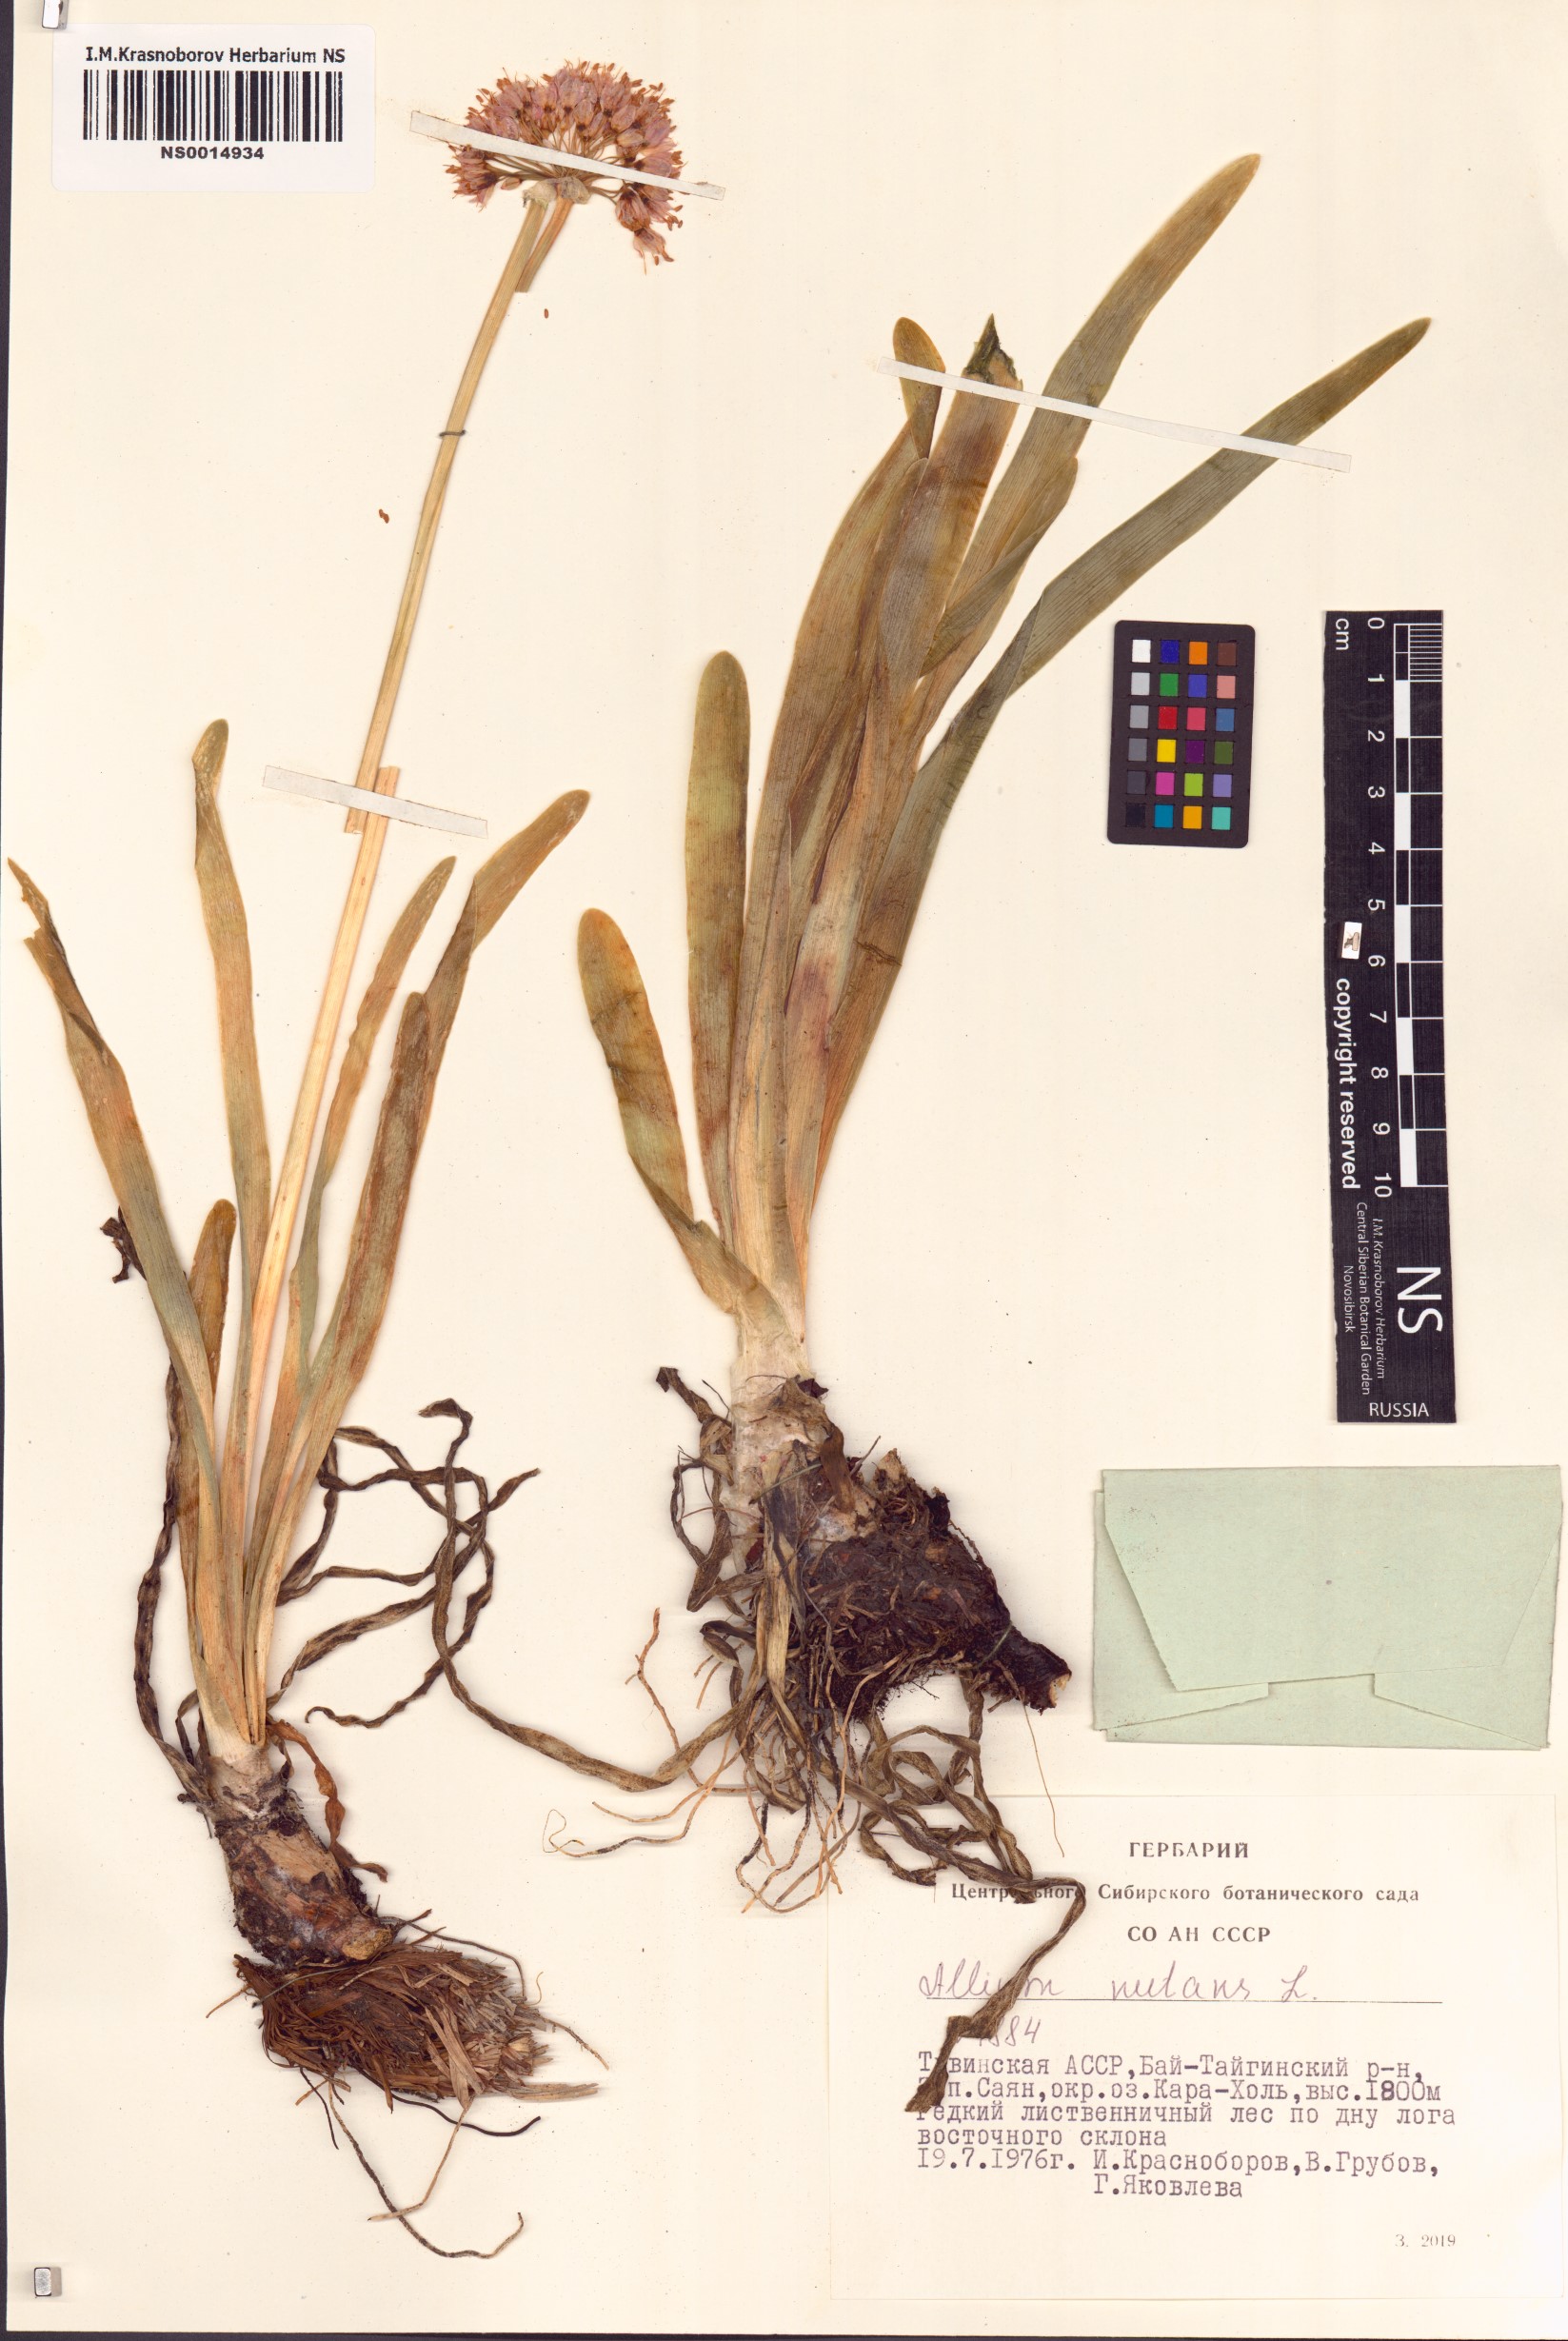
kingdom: Plantae
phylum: Tracheophyta
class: Liliopsida
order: Asparagales
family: Amaryllidaceae
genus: Allium
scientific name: Allium nutans
